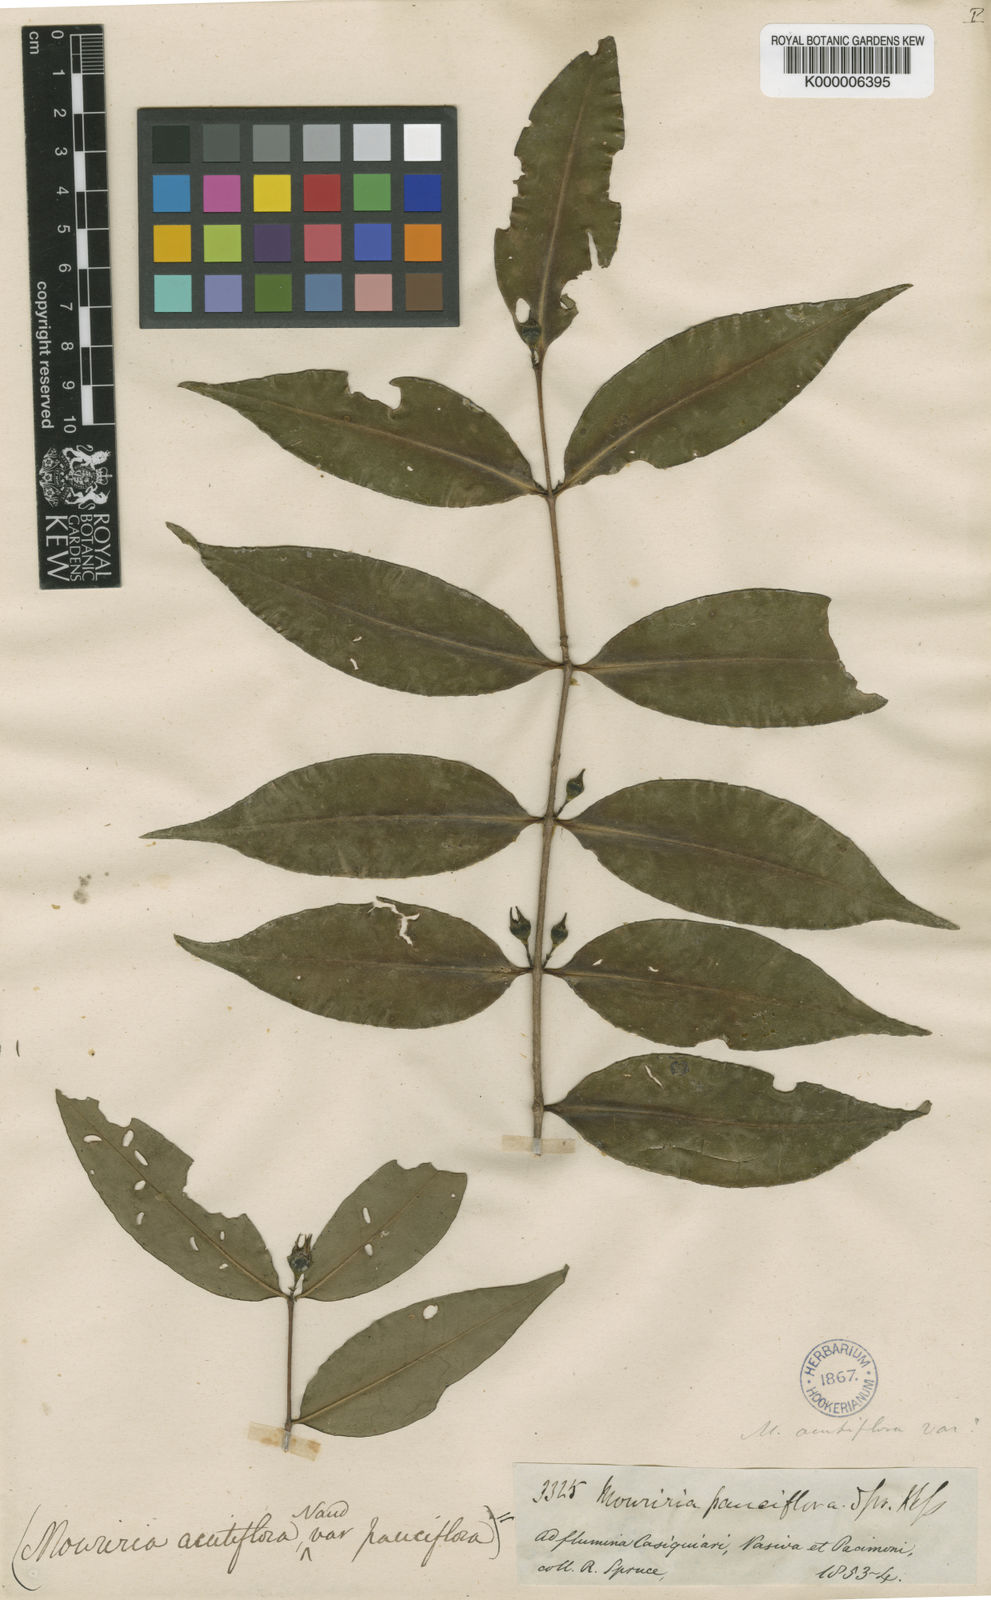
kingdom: Plantae
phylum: Tracheophyta
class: Magnoliopsida
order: Myrtales
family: Melastomataceae
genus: Mouriri
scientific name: Mouriri pauciflora
